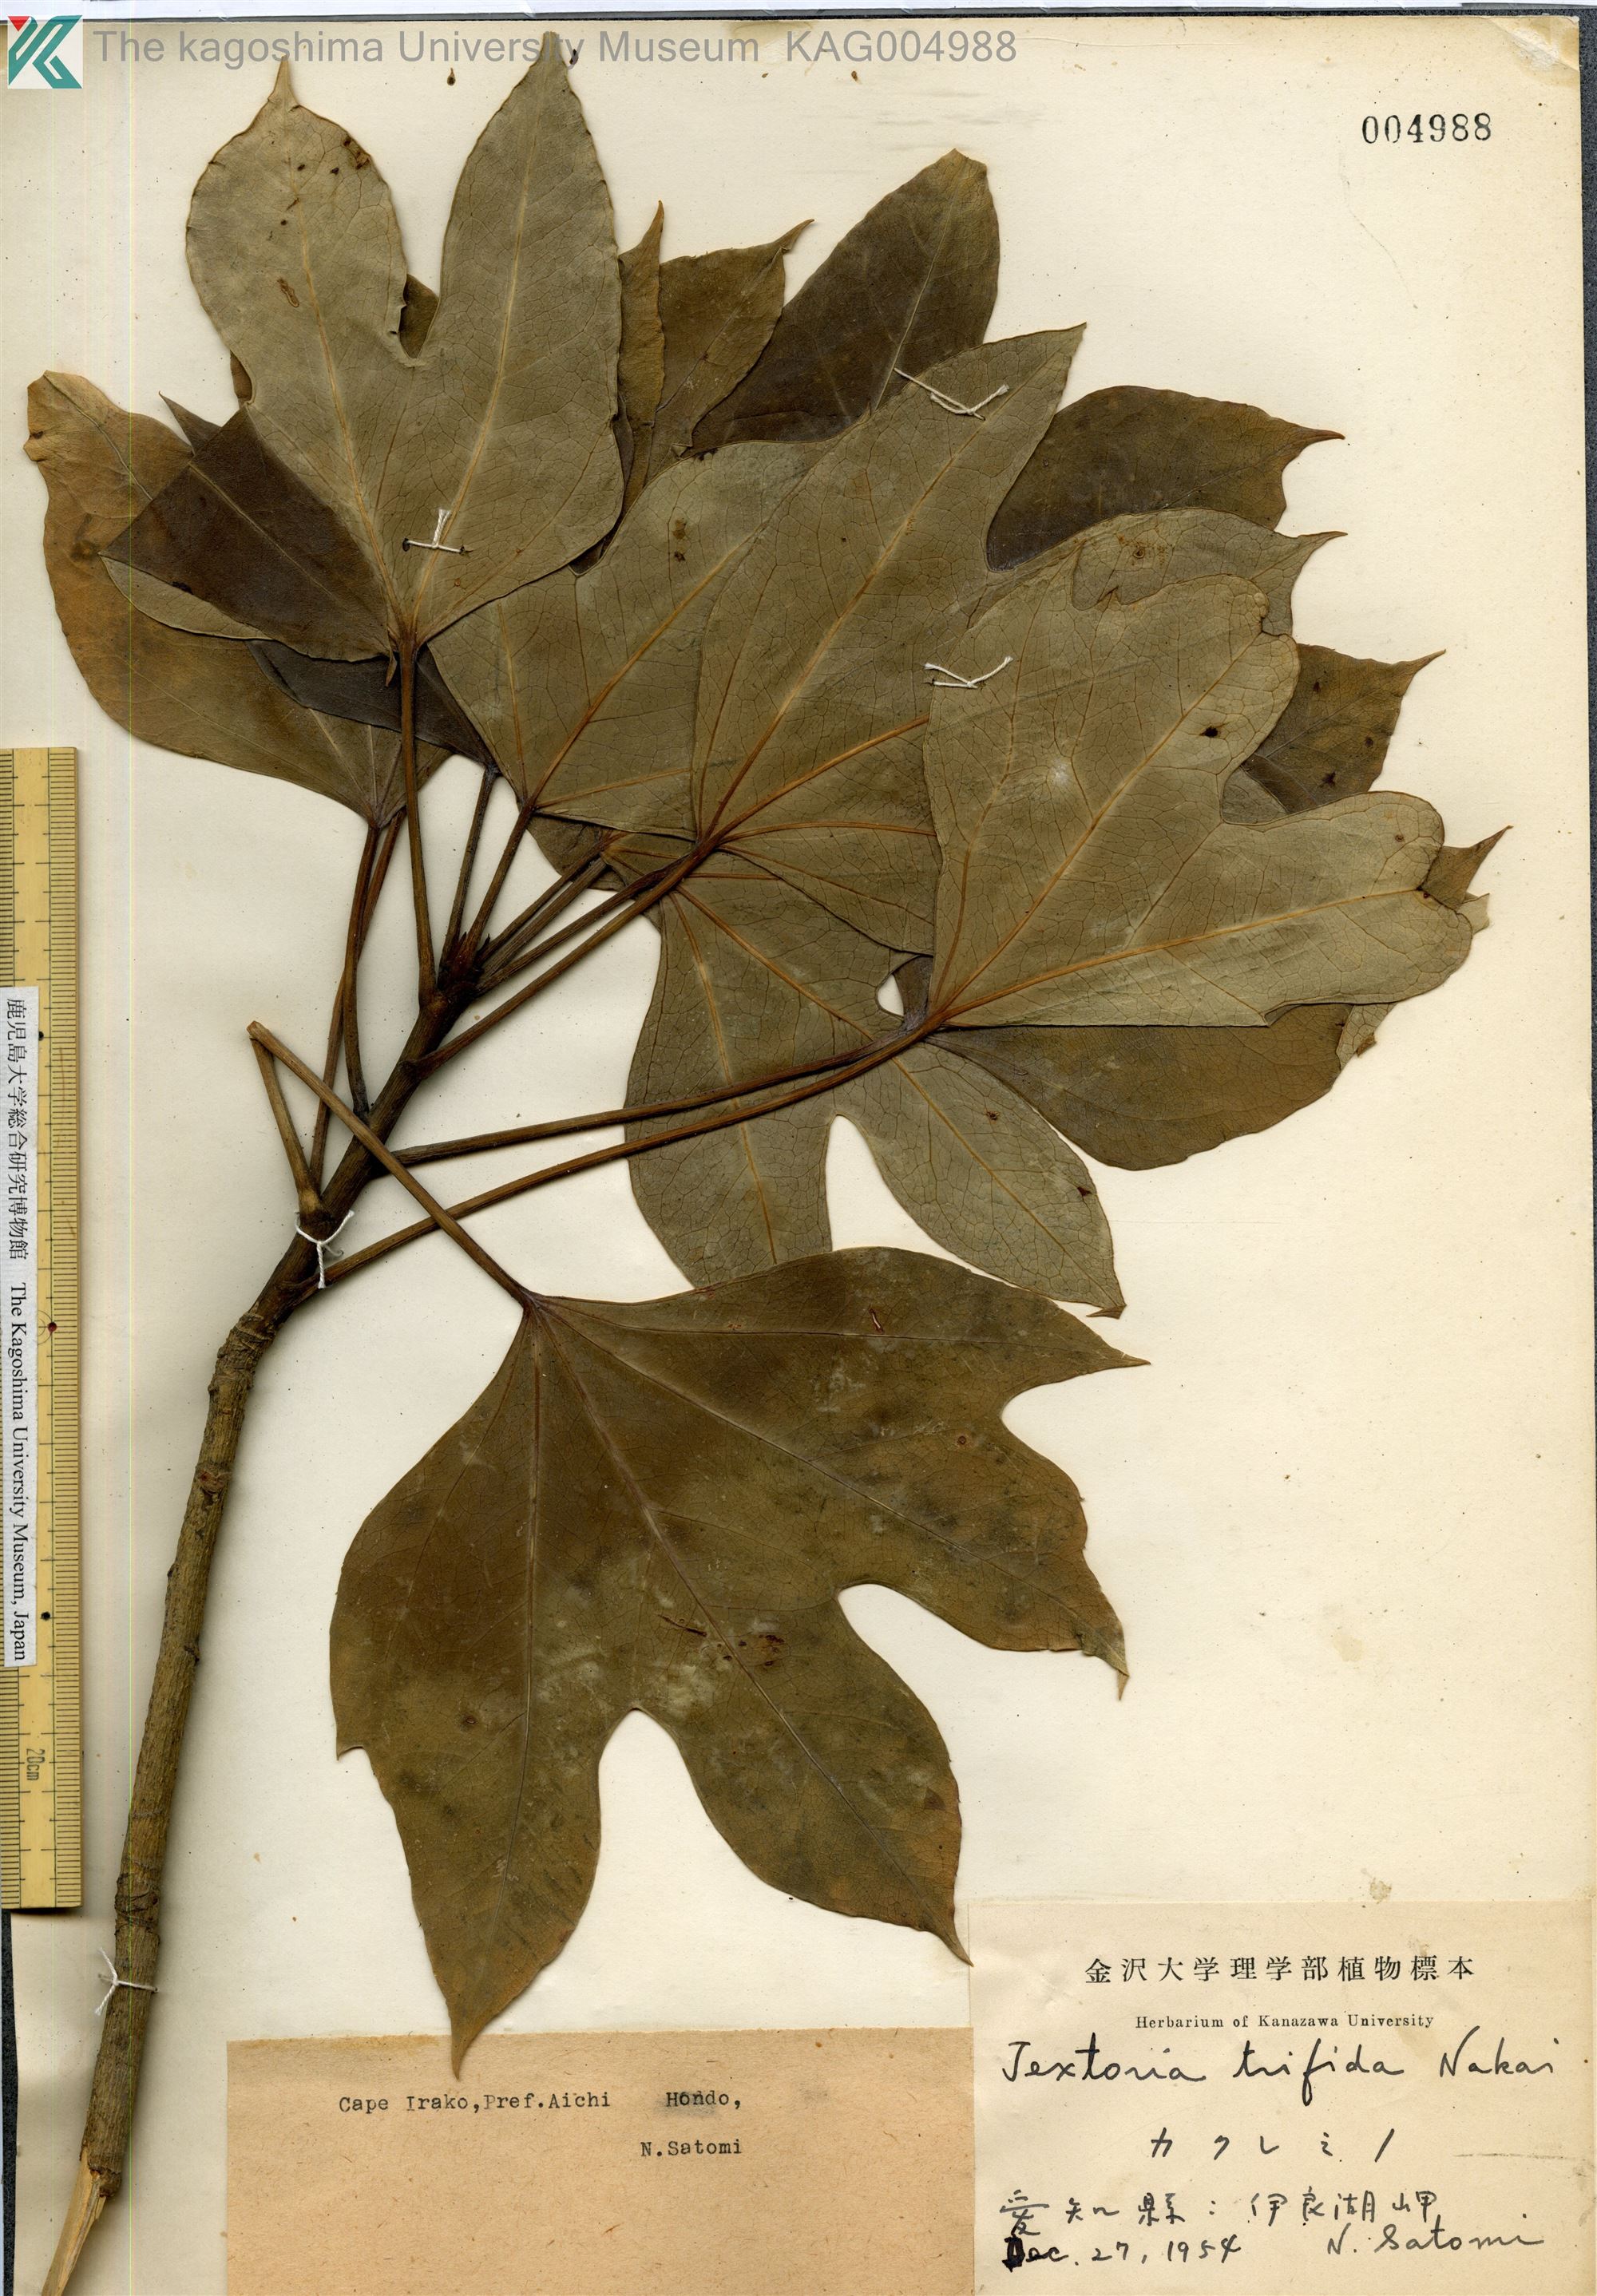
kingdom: Plantae
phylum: Tracheophyta
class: Magnoliopsida
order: Apiales
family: Araliaceae
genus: Dendropanax
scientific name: Dendropanax trifidus
